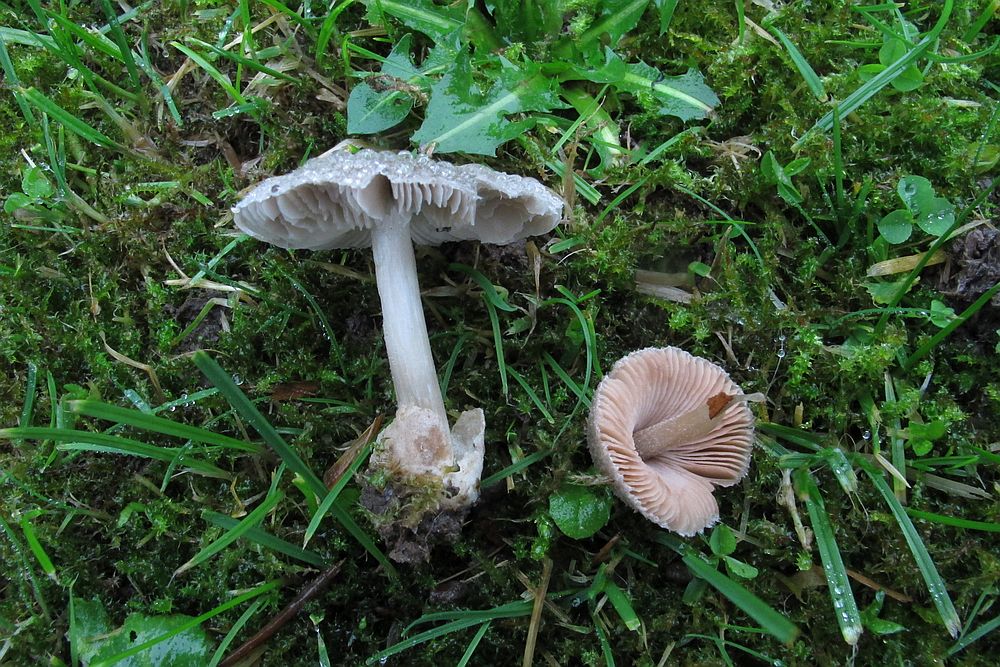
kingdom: Fungi
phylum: Basidiomycota
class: Agaricomycetes
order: Agaricales
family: Pluteaceae
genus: Volvariella
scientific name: Volvariella murinella
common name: musegrå posesvamp
